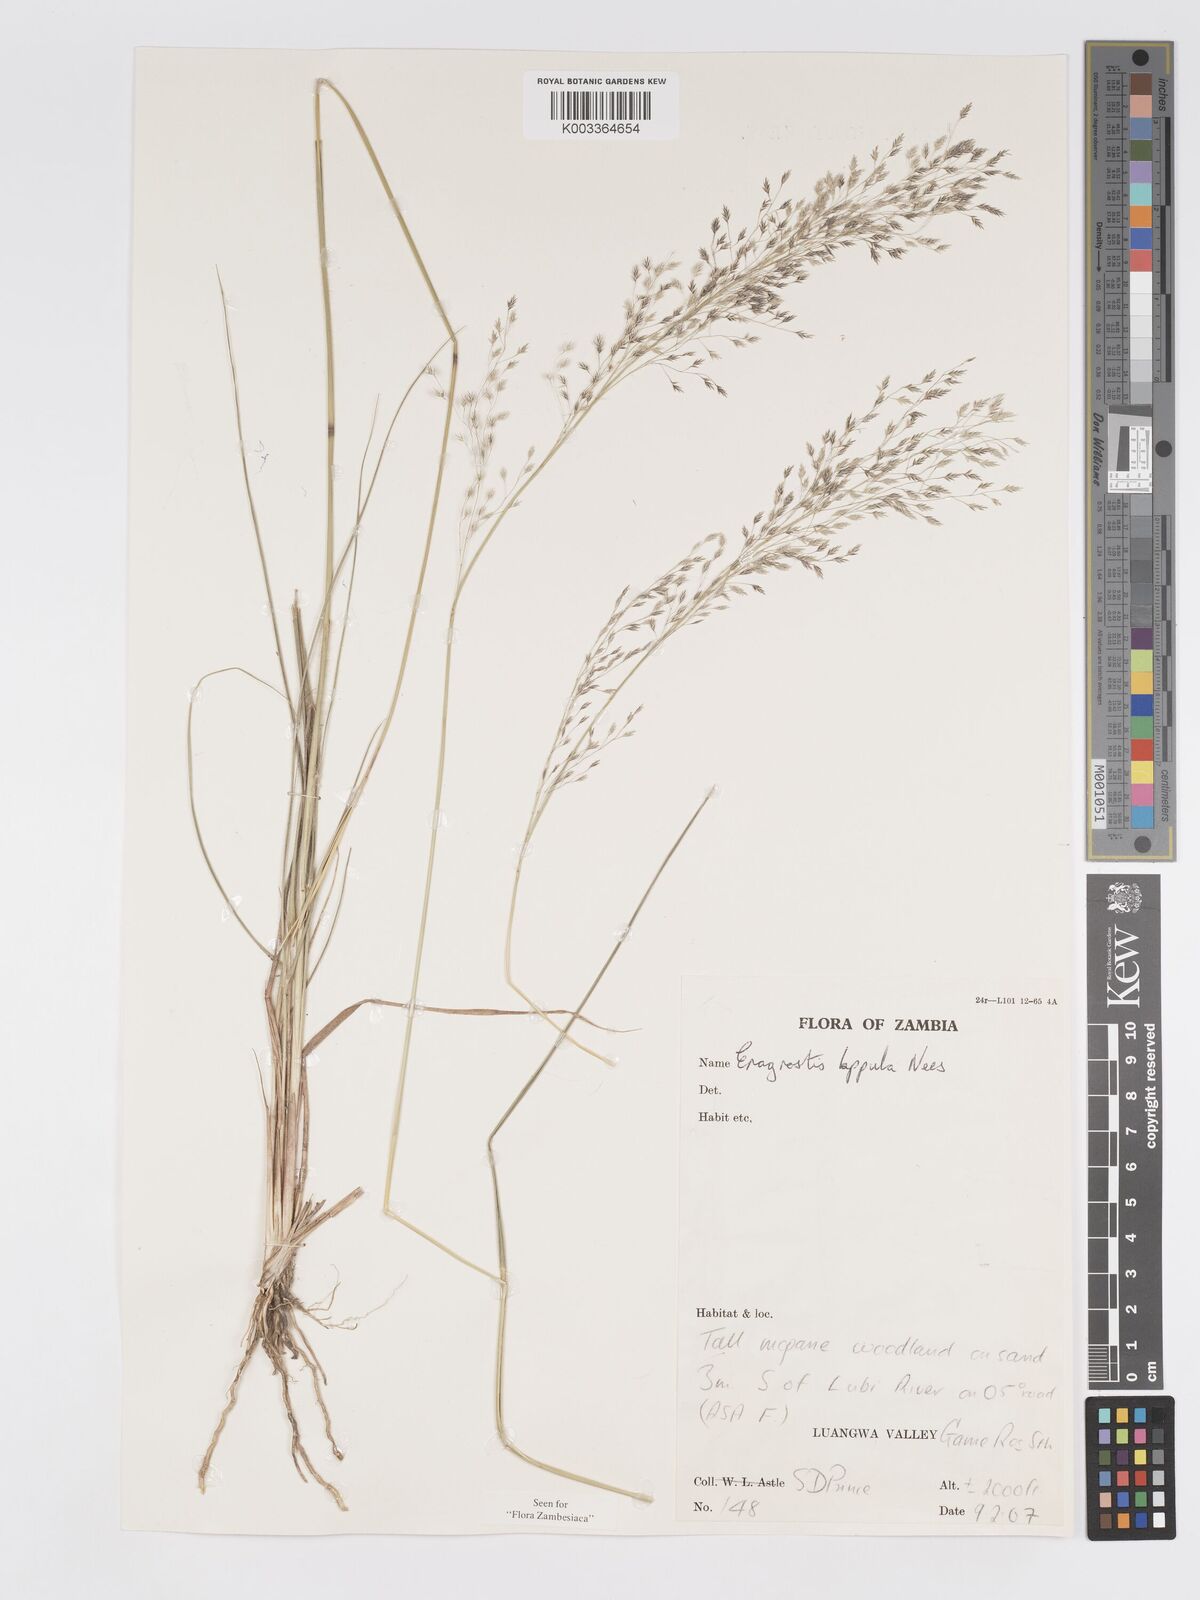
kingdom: Plantae
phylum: Tracheophyta
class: Liliopsida
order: Poales
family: Poaceae
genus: Eragrostis
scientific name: Eragrostis lappula
